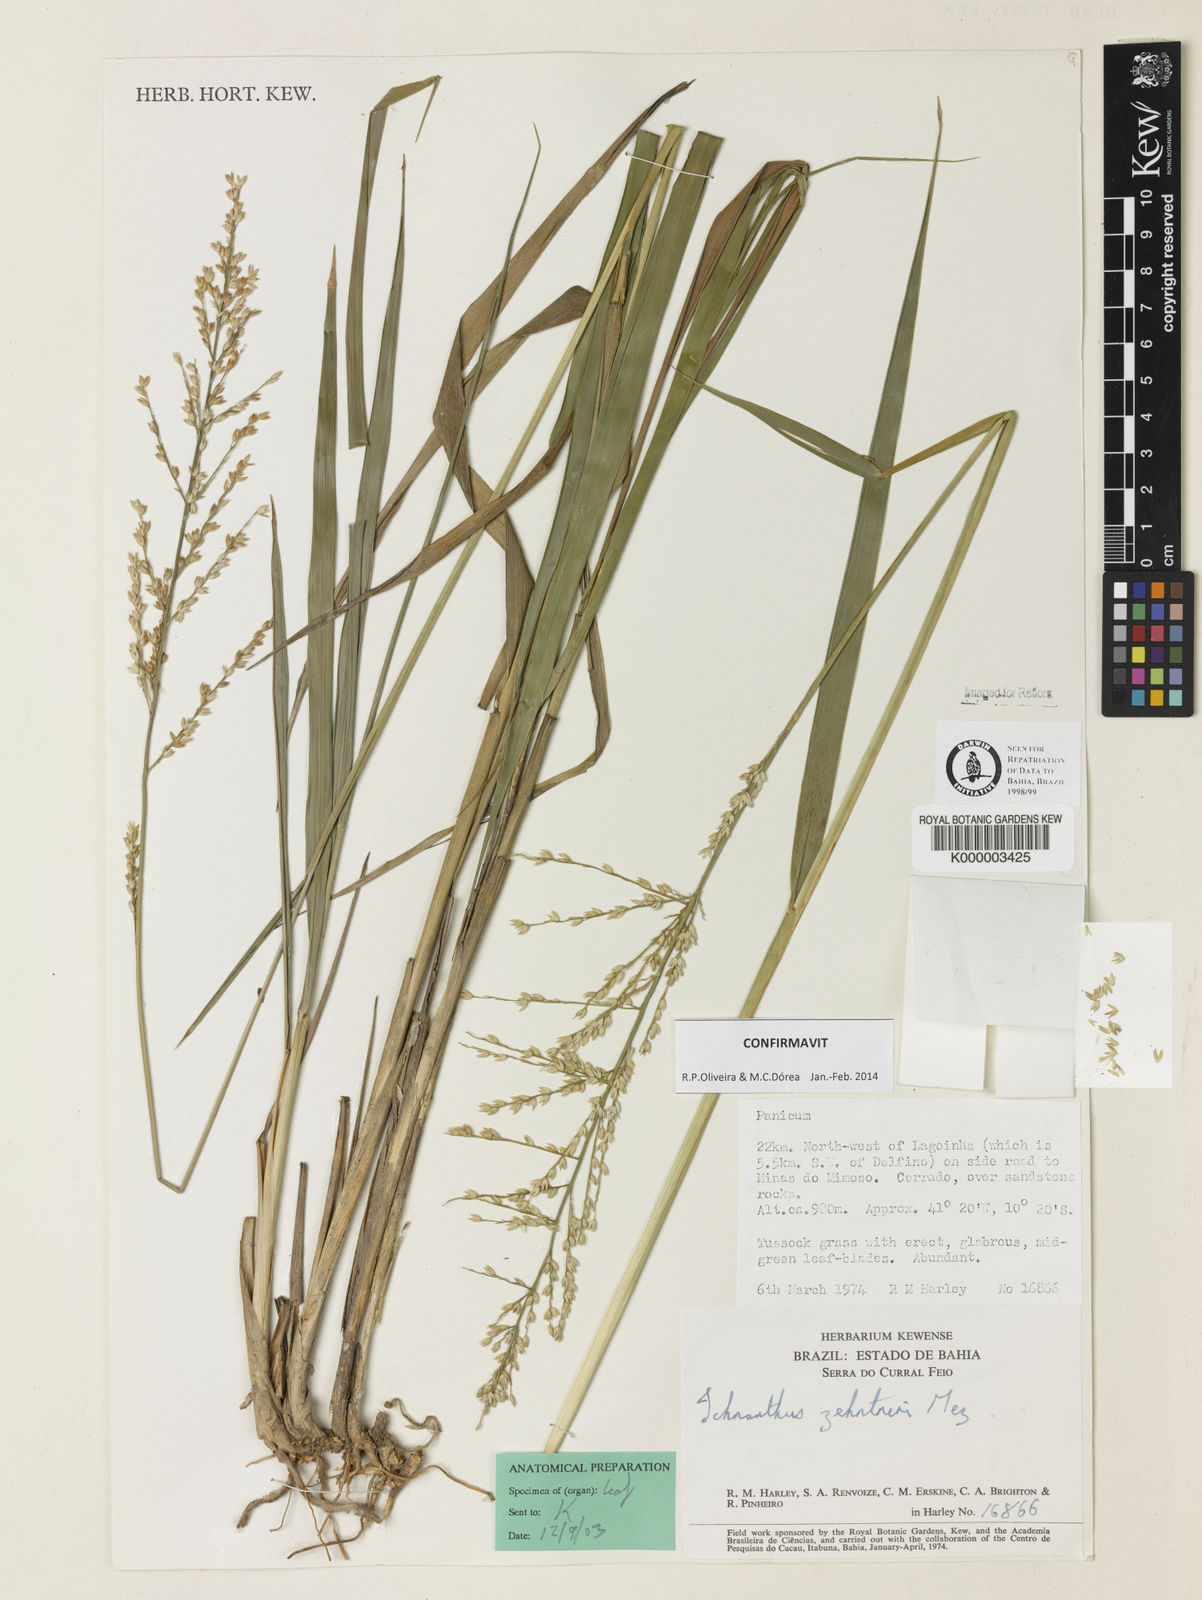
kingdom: Plantae
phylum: Tracheophyta
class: Liliopsida
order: Poales
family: Poaceae
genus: Ichnanthus
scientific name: Ichnanthus zehntneri
